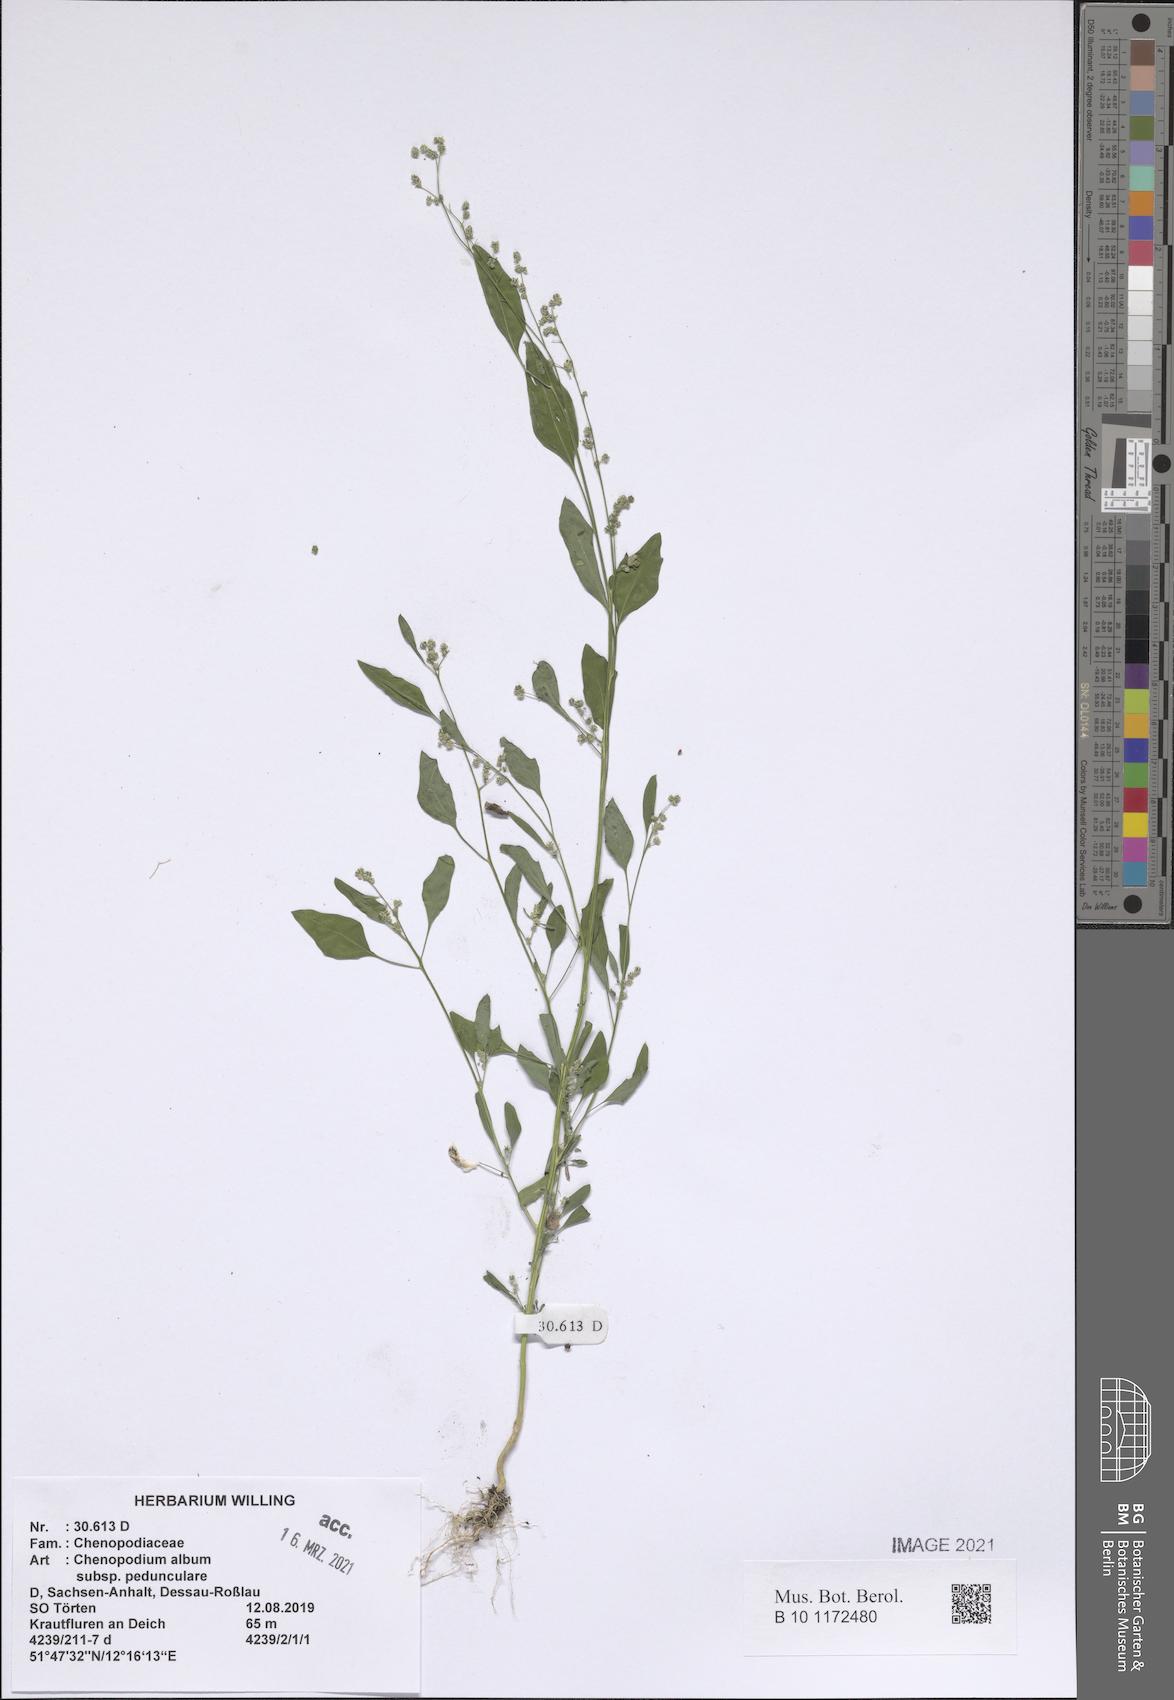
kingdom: Plantae
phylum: Tracheophyta
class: Magnoliopsida
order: Caryophyllales
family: Amaranthaceae
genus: Chenopodium
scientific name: Chenopodium album
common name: Fat-hen
